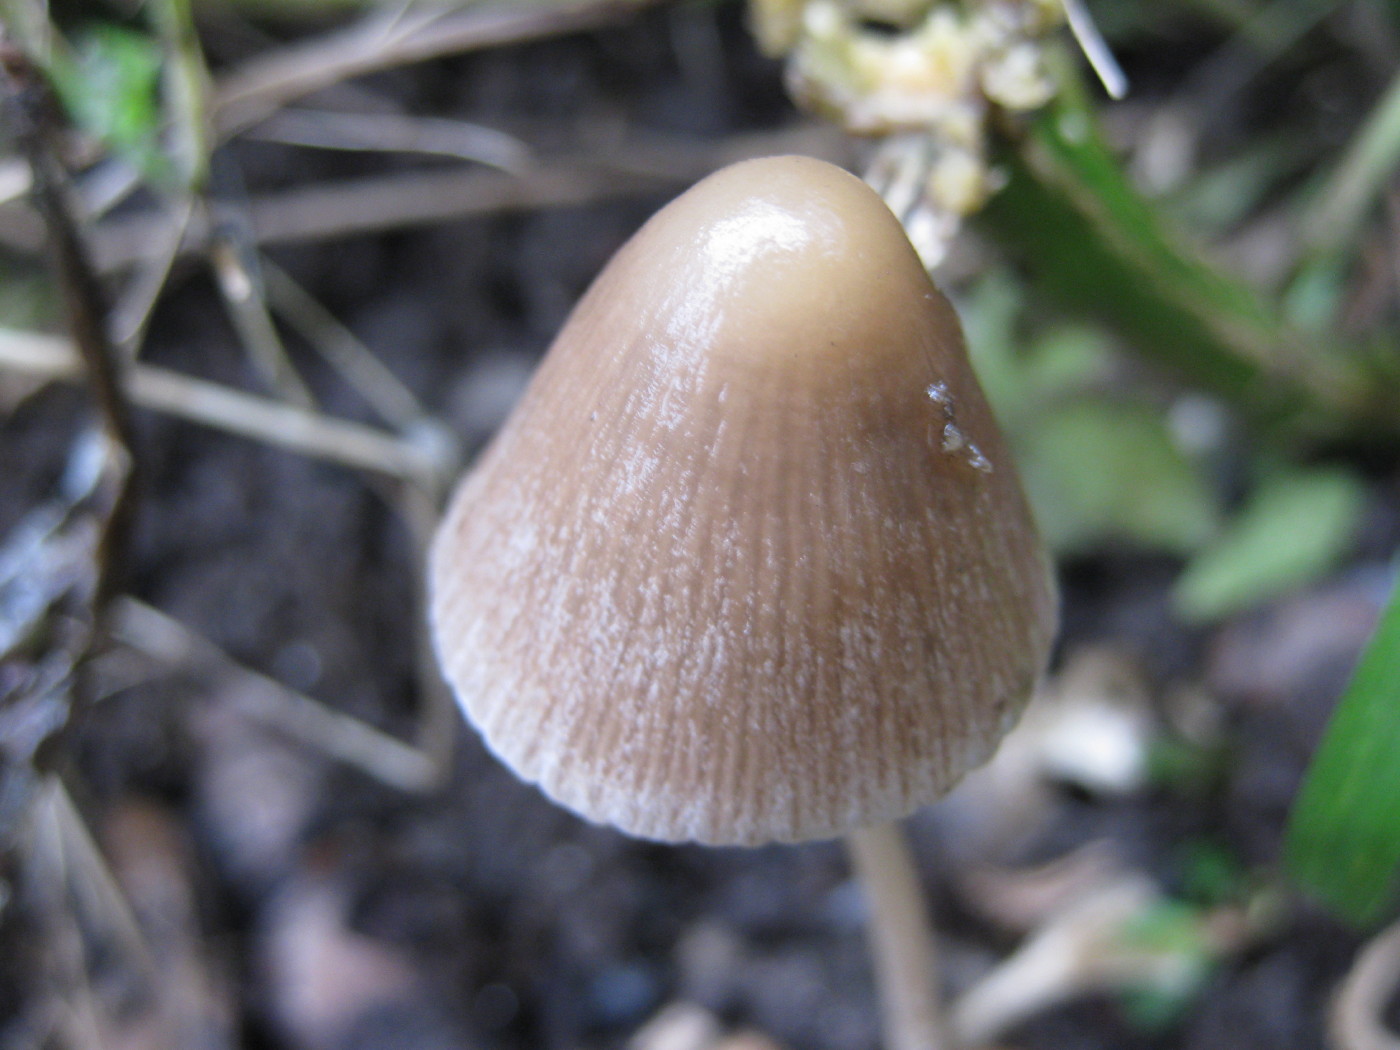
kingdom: Fungi
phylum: Basidiomycota
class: Agaricomycetes
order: Agaricales
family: Psathyrellaceae
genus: Psathyrella
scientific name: Psathyrella pseudogracilis
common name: slank mørkhat
